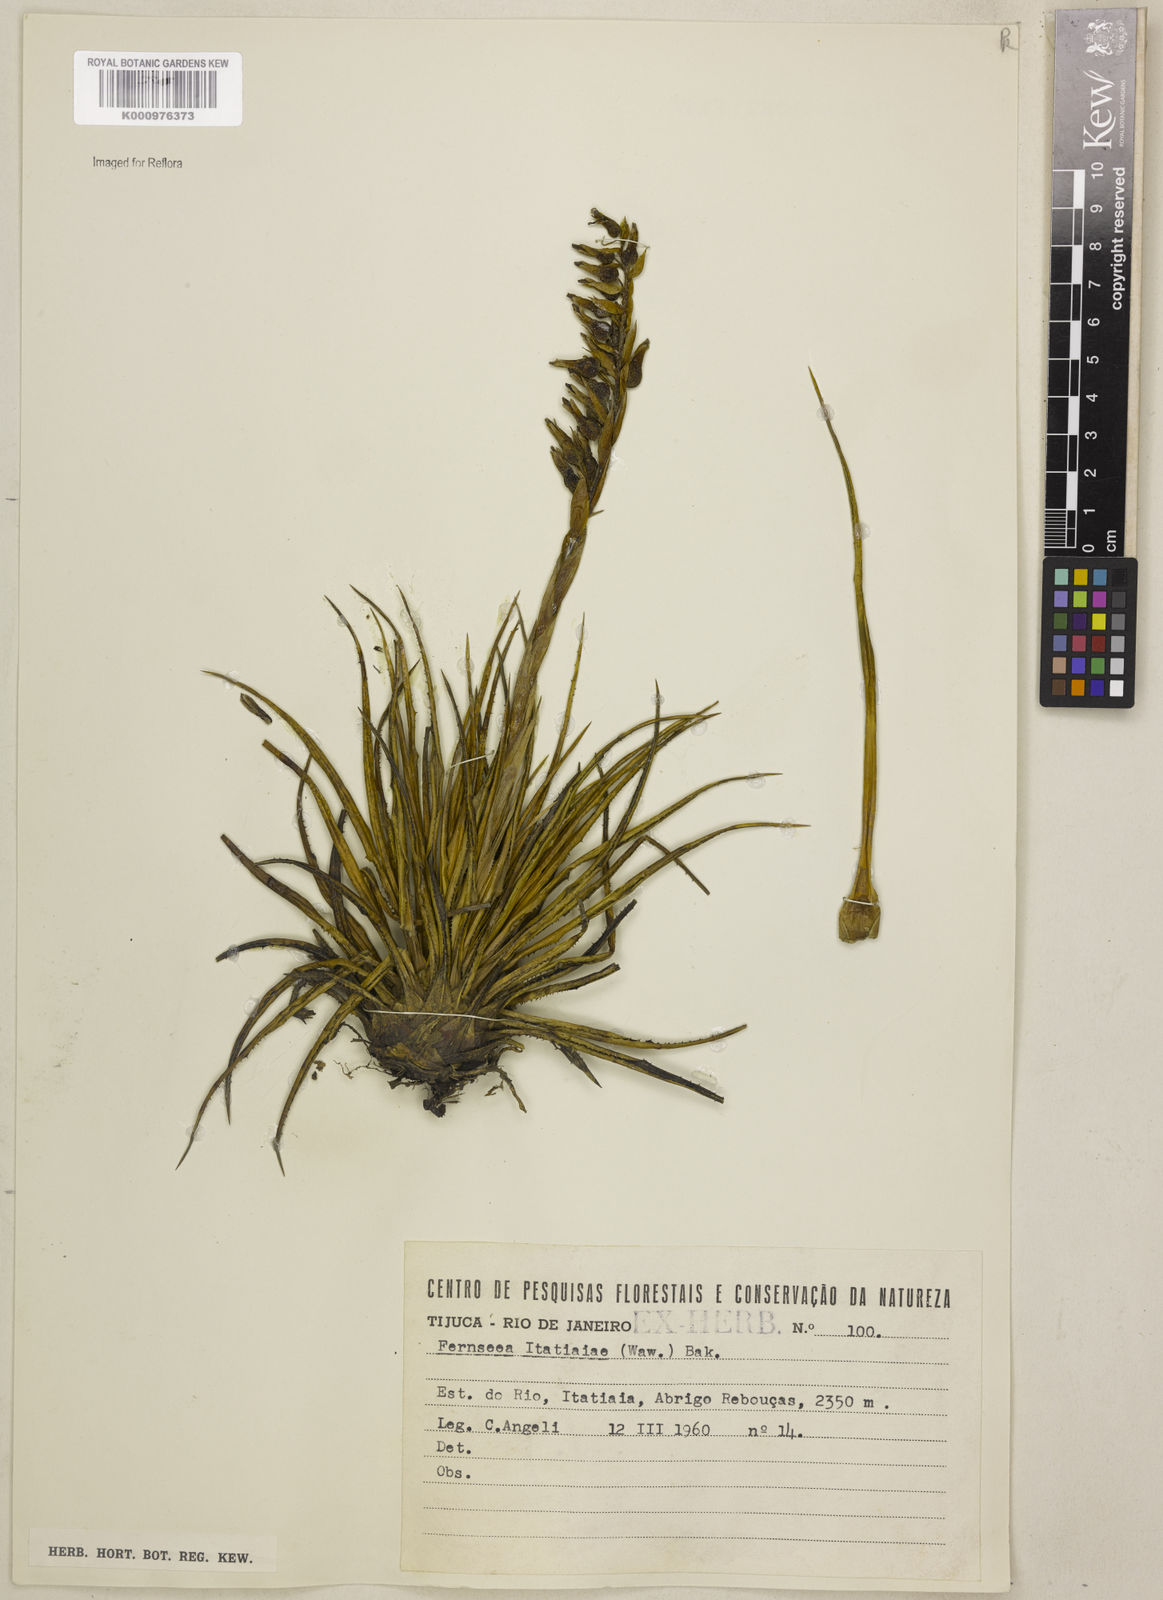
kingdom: Plantae
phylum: Tracheophyta
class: Liliopsida
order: Poales
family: Bromeliaceae
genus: Fernseea
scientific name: Fernseea itatiaiae
